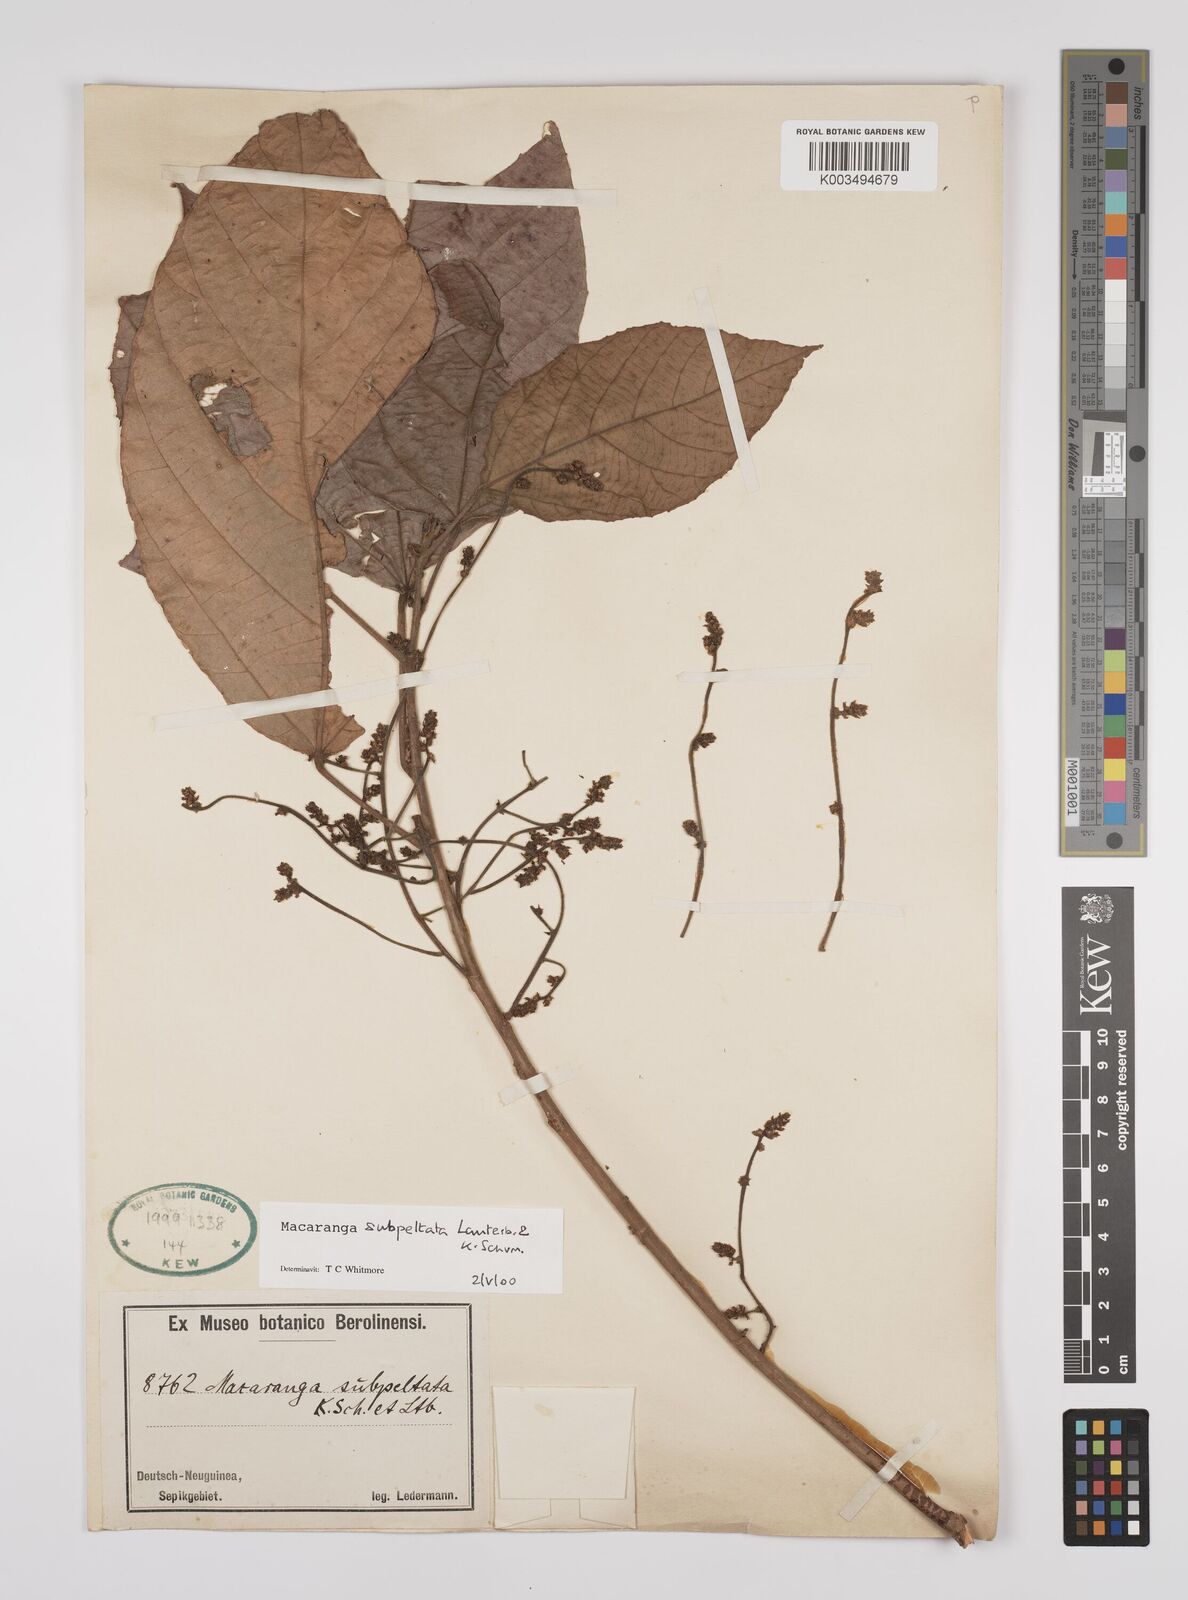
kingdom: Plantae
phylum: Tracheophyta
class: Magnoliopsida
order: Malpighiales
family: Euphorbiaceae
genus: Macaranga
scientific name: Macaranga subpeltata
